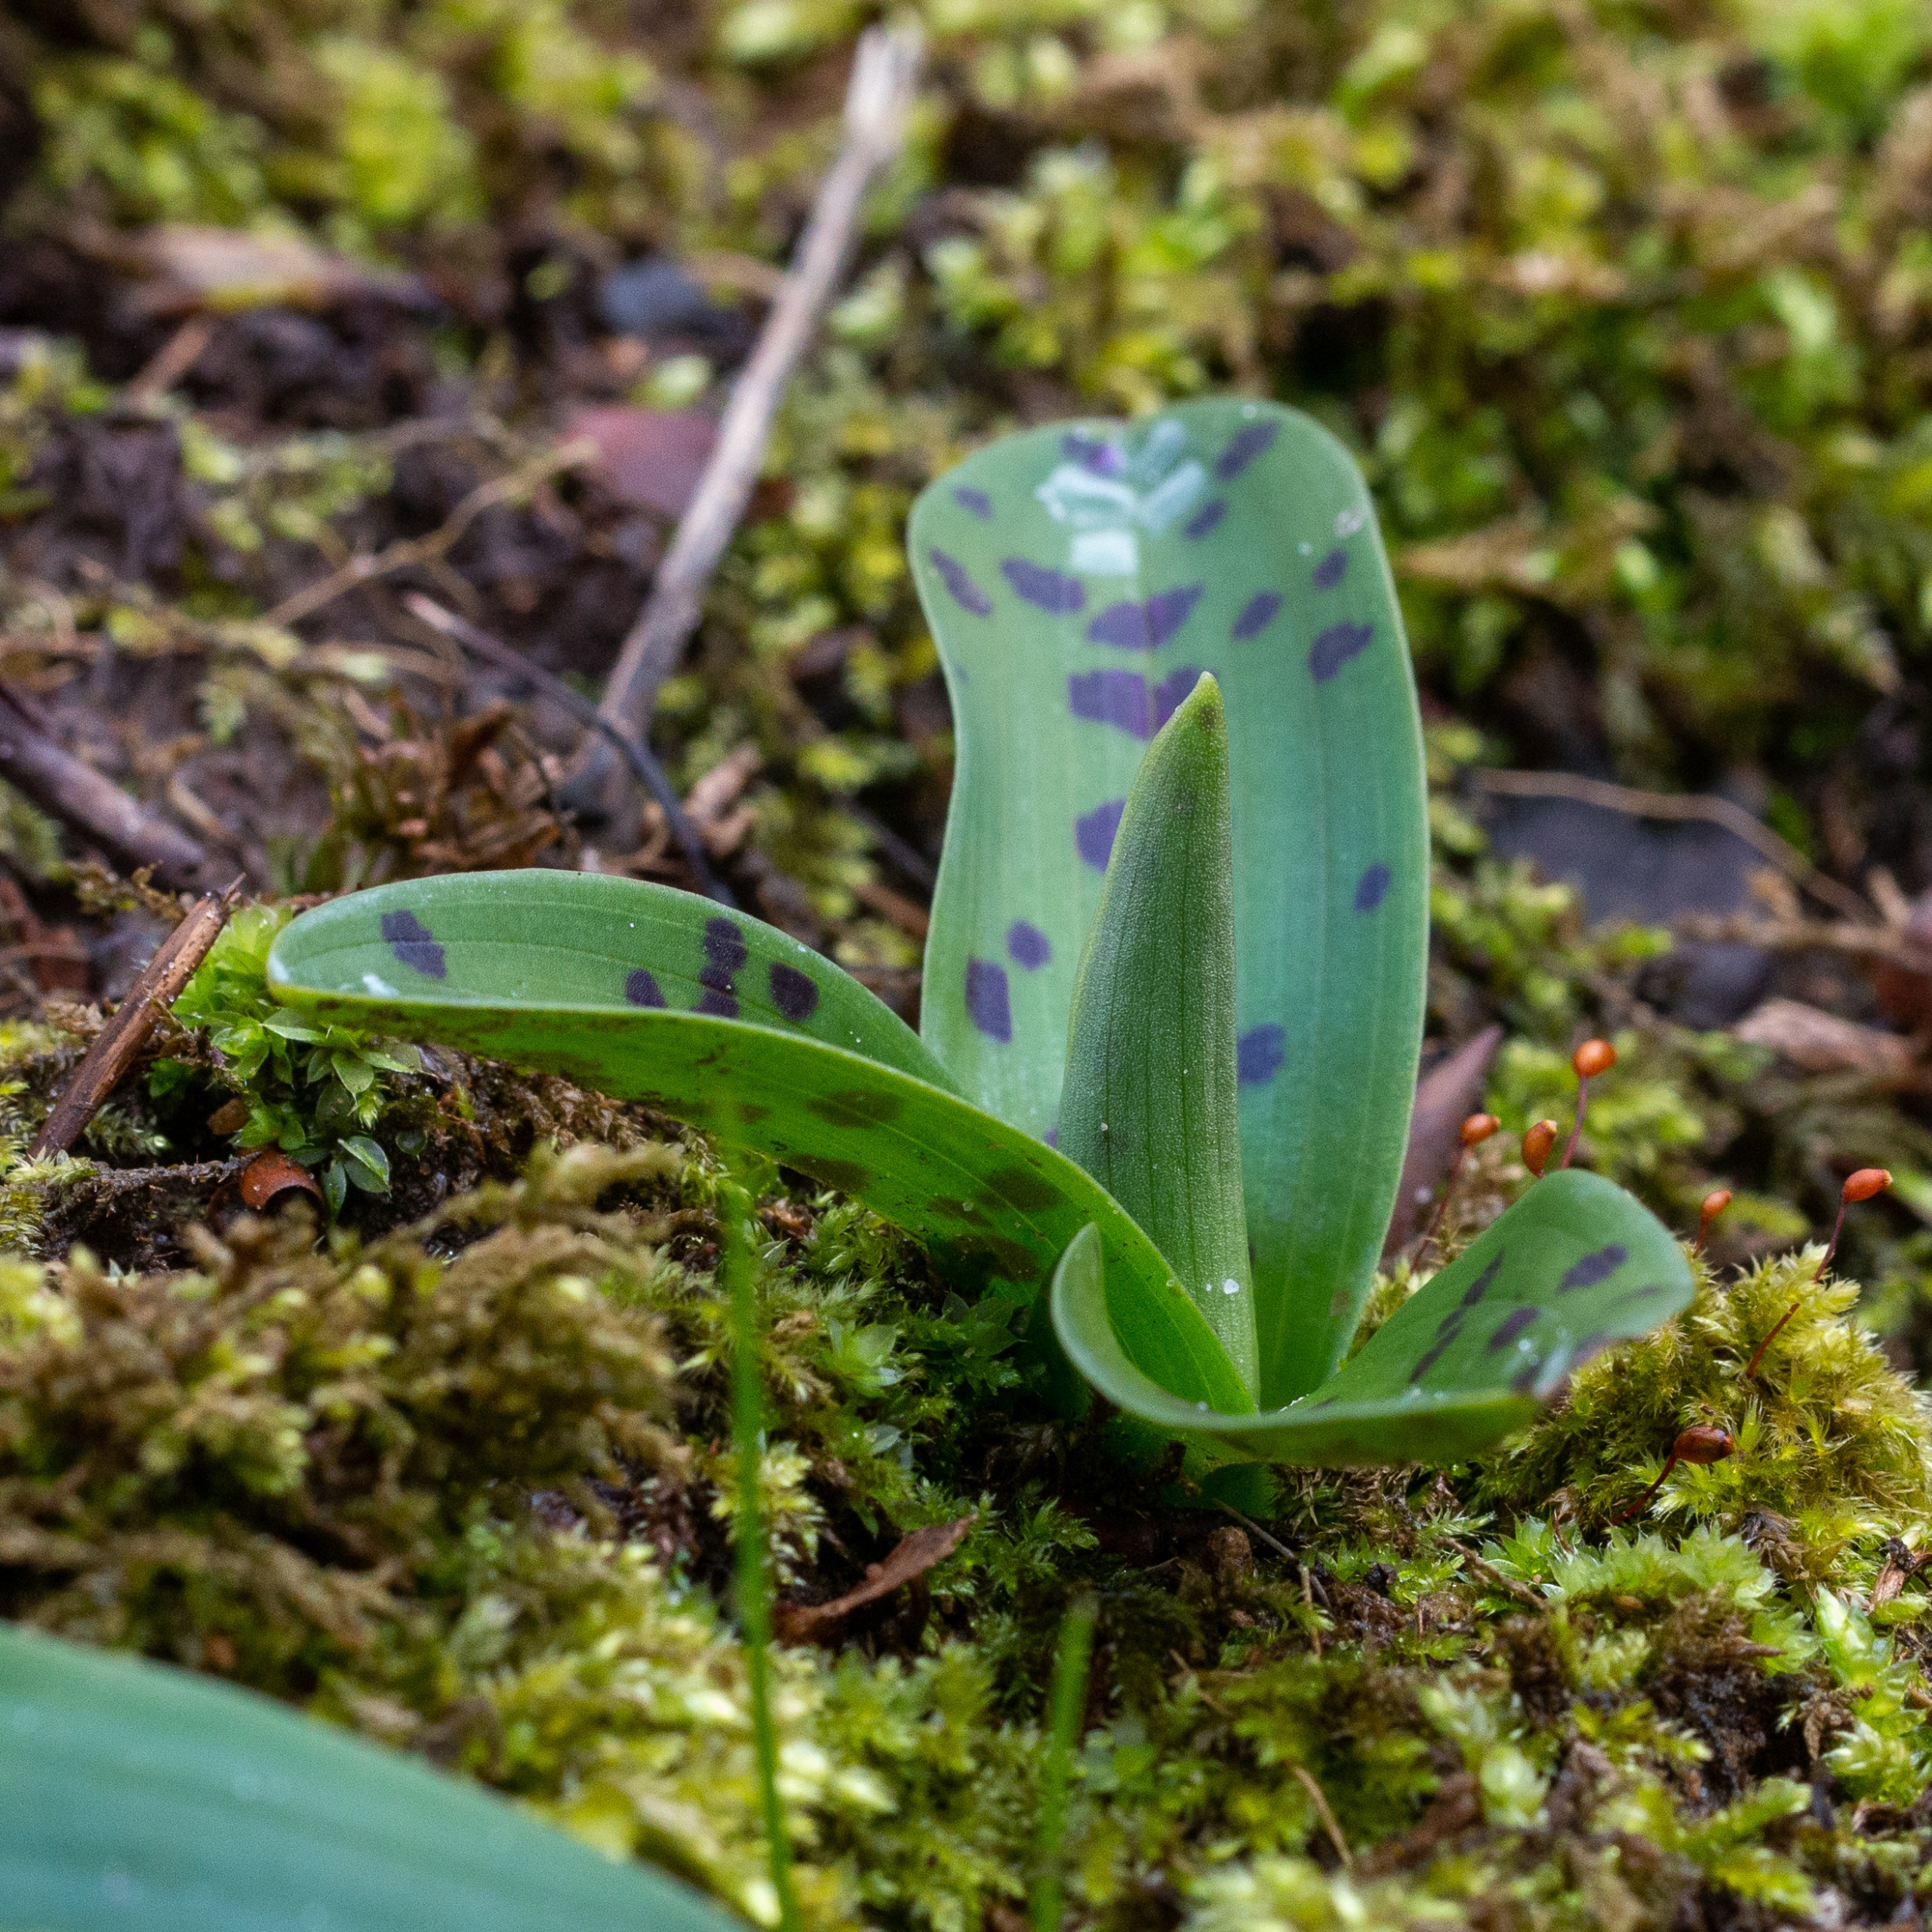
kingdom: Plantae
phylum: Tracheophyta
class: Liliopsida
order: Asparagales
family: Orchidaceae
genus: Orchis
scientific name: Orchis mascula
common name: Tyndakset gøgeurt
